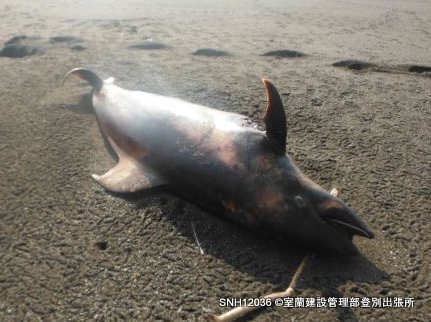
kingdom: Animalia
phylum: Chordata
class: Mammalia
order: Cetacea
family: Delphinidae
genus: Lagenorhynchus
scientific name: Lagenorhynchus obliquidens
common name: Pacific white-sided dolphin
